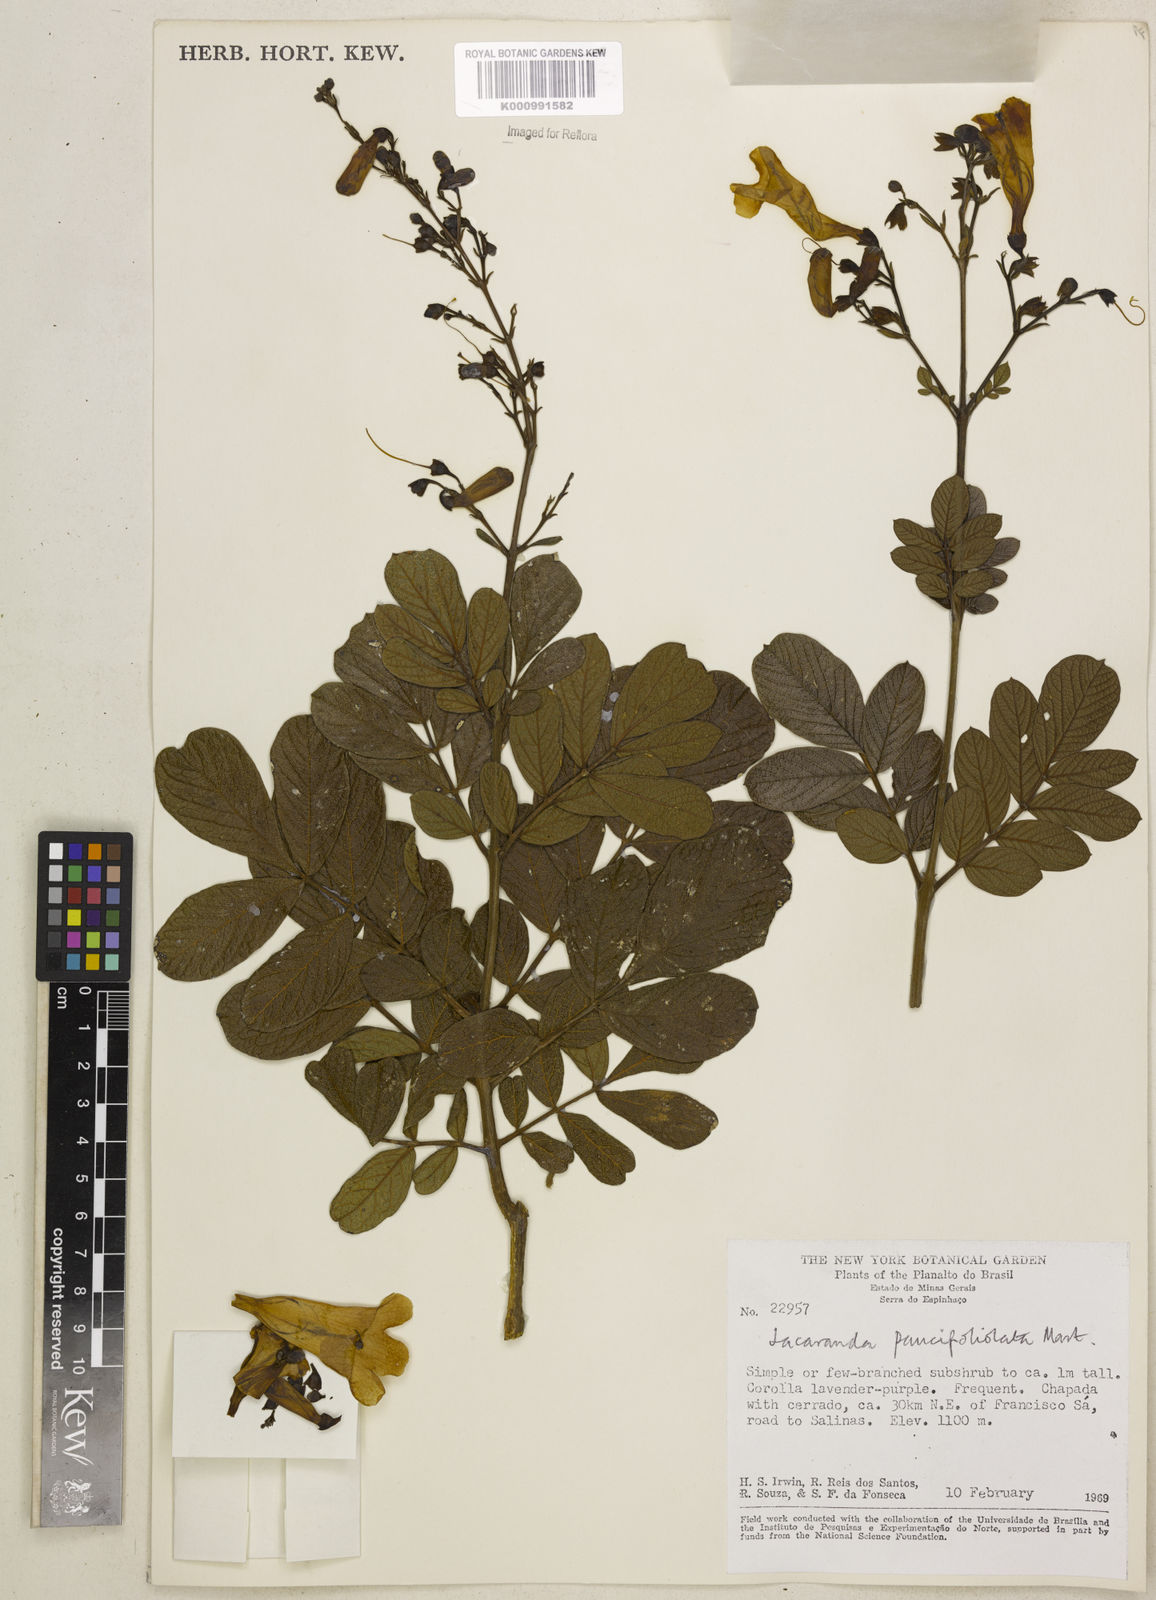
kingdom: Plantae
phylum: Tracheophyta
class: Magnoliopsida
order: Lamiales
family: Bignoniaceae
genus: Jacaranda
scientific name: Jacaranda
